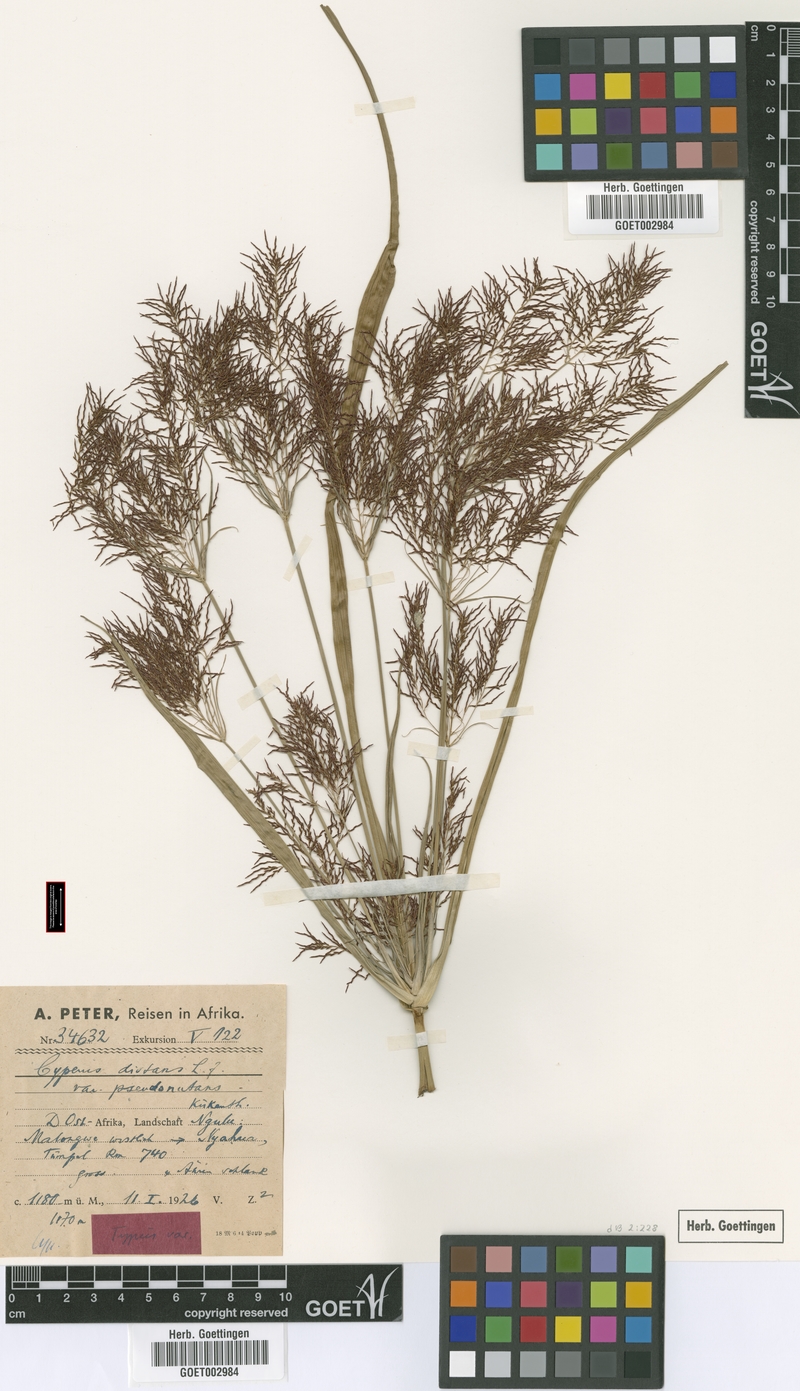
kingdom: Plantae
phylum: Tracheophyta
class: Liliopsida
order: Poales
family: Cyperaceae
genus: Cyperus
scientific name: Cyperus distans
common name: Slender cyperus
